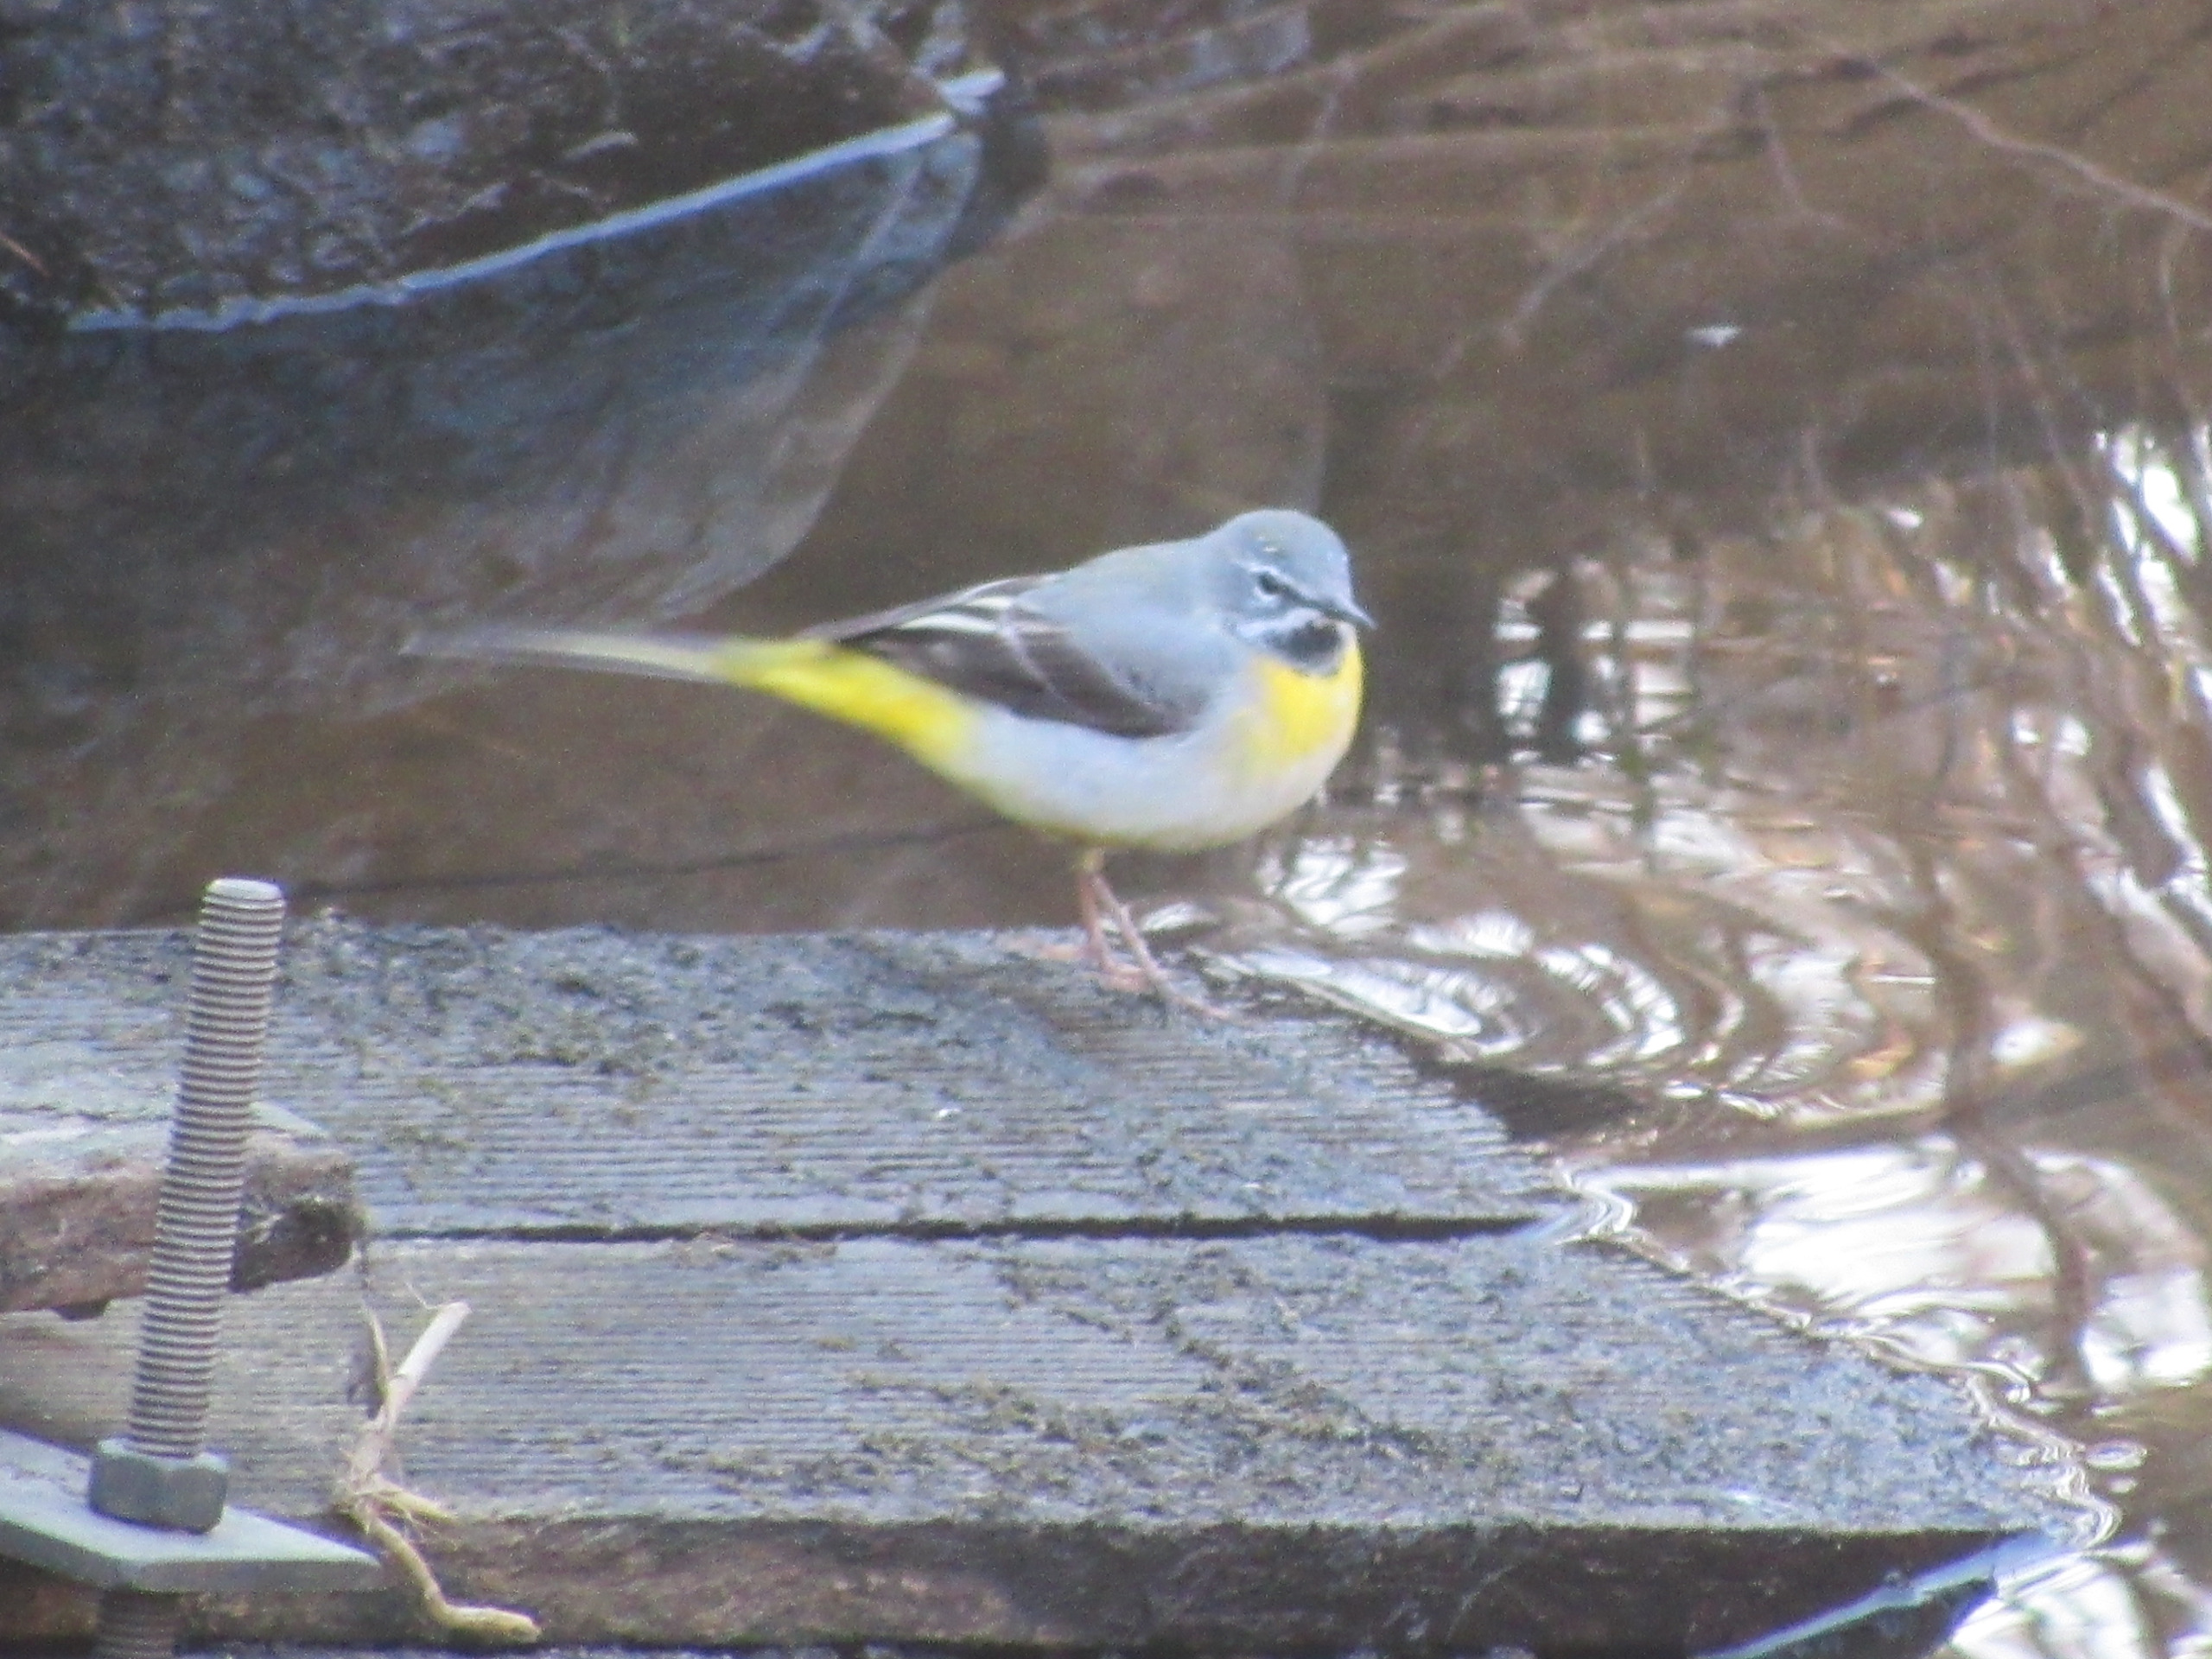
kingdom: Animalia
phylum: Chordata
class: Aves
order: Passeriformes
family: Motacillidae
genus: Motacilla
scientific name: Motacilla cinerea
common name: Bjergvipstjert
